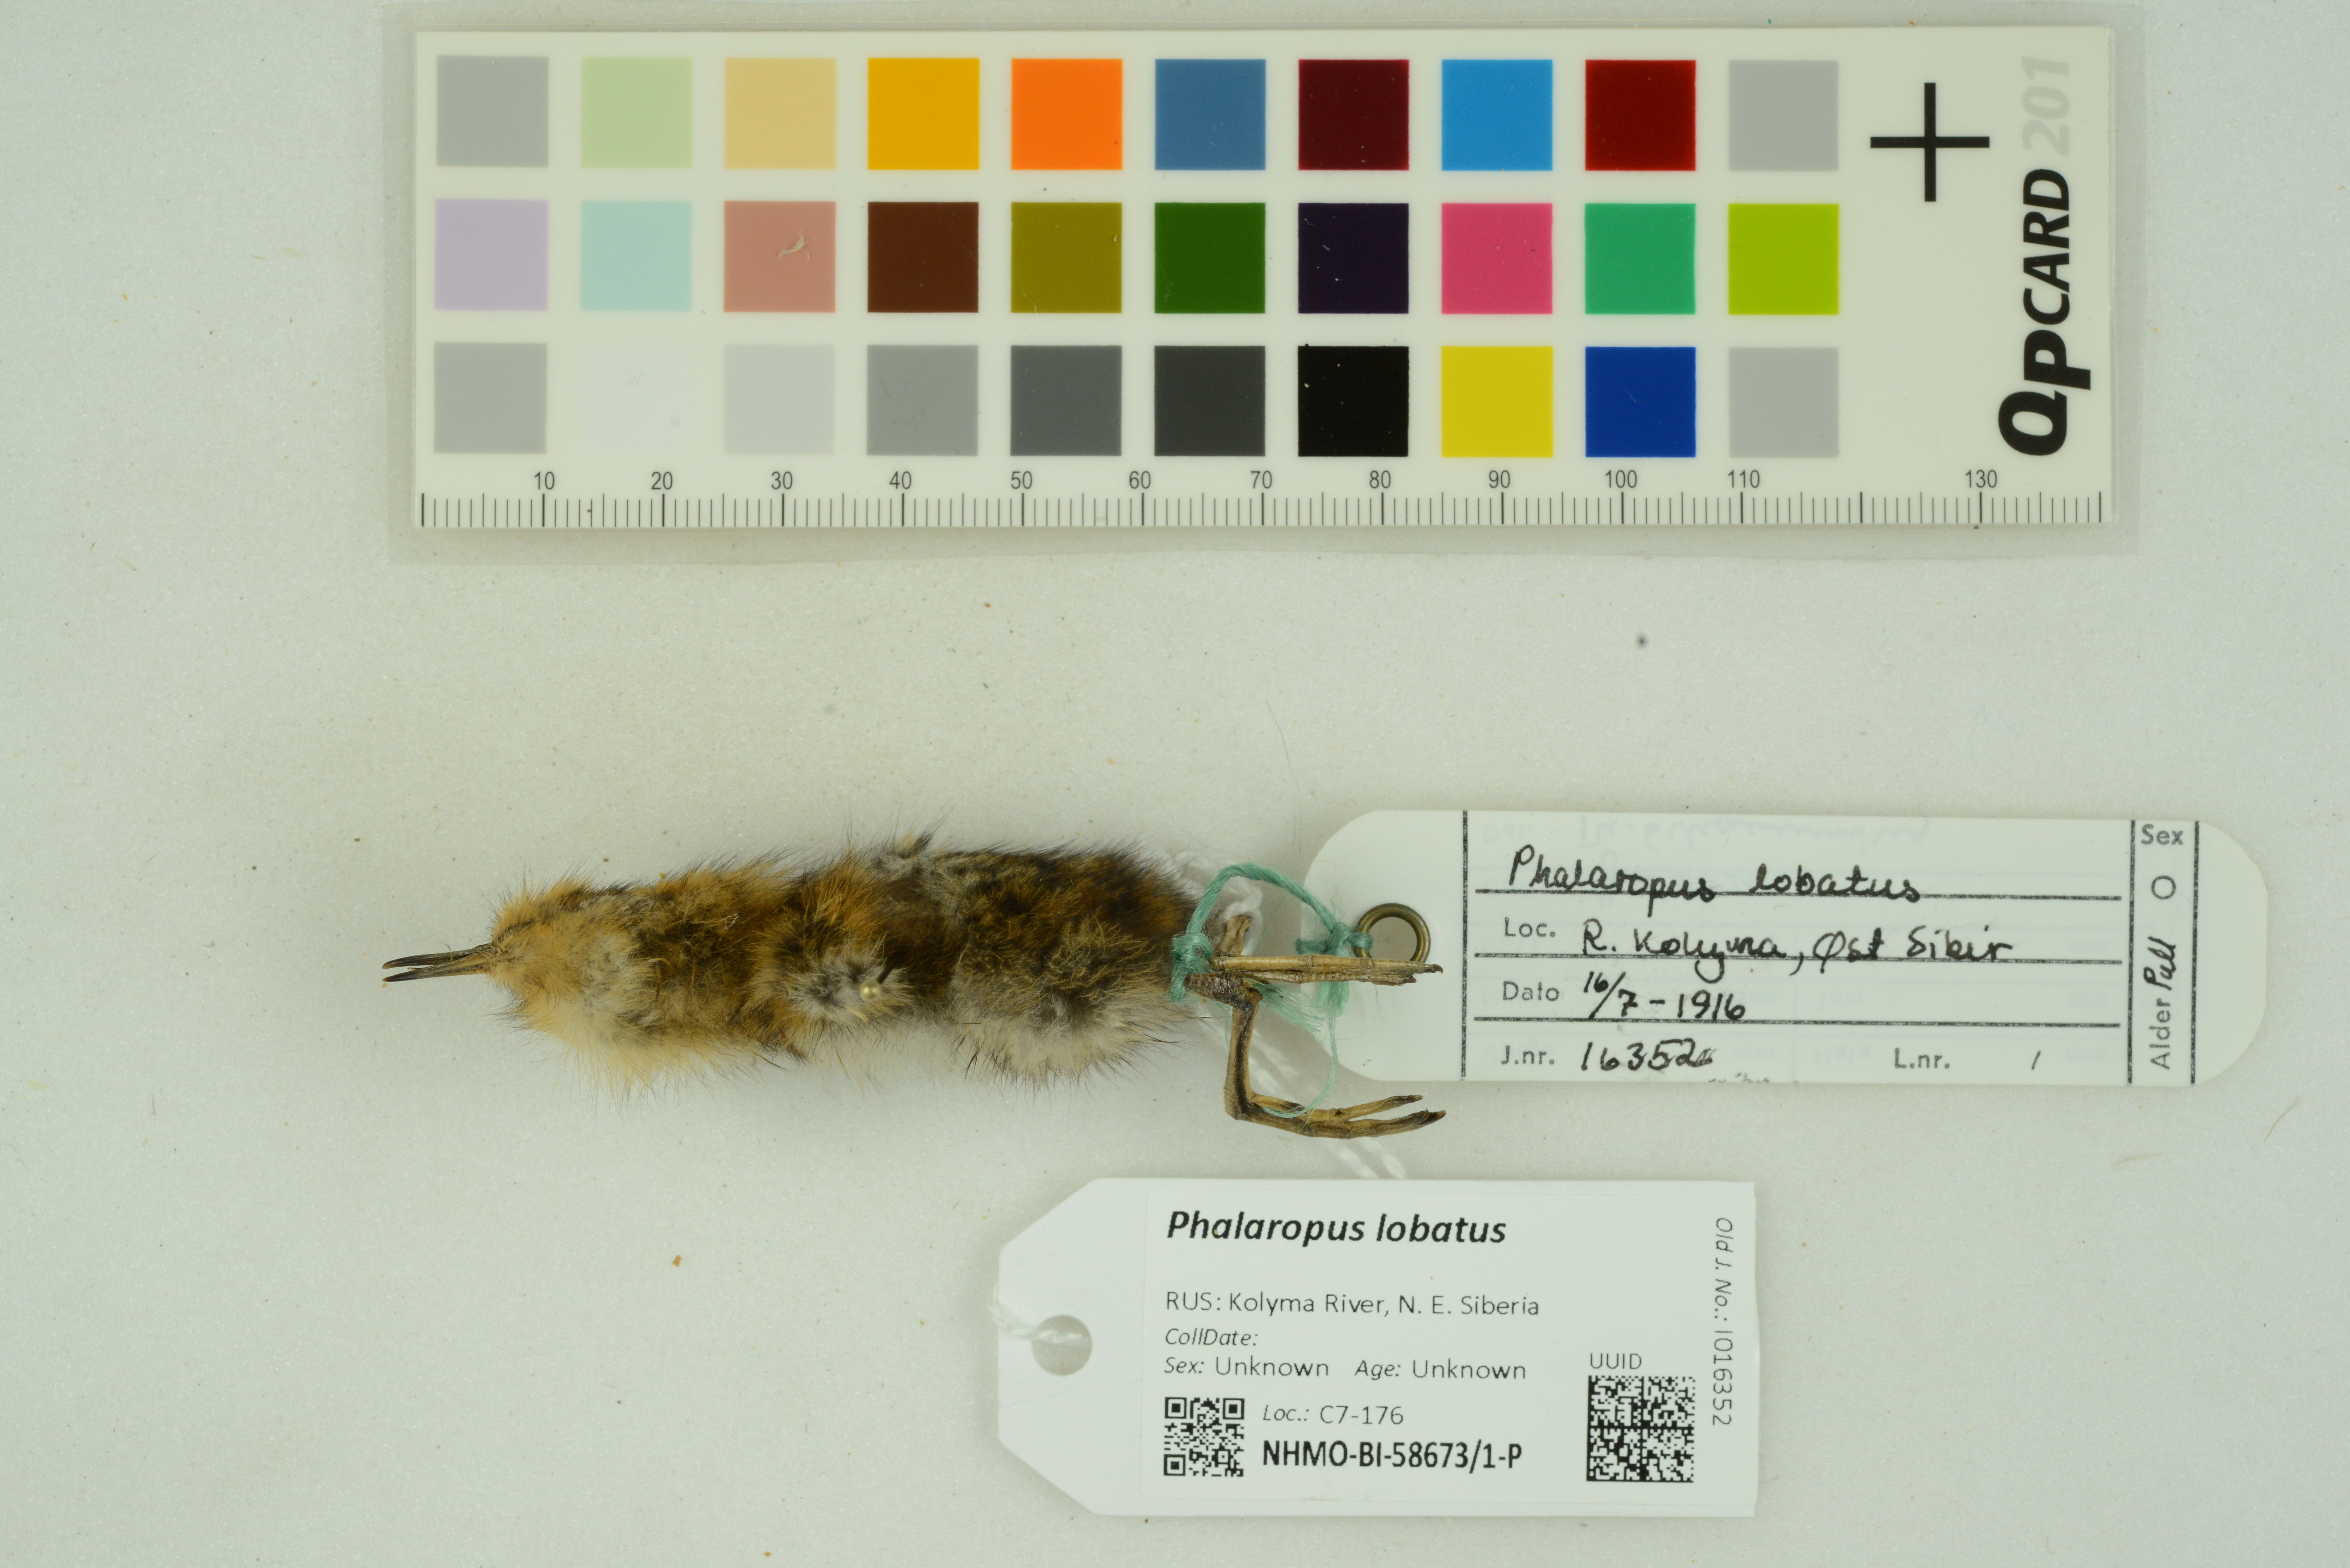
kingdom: Animalia
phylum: Chordata
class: Aves
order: Charadriiformes
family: Scolopacidae
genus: Phalaropus
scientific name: Phalaropus lobatus
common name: Red-necked phalarope
